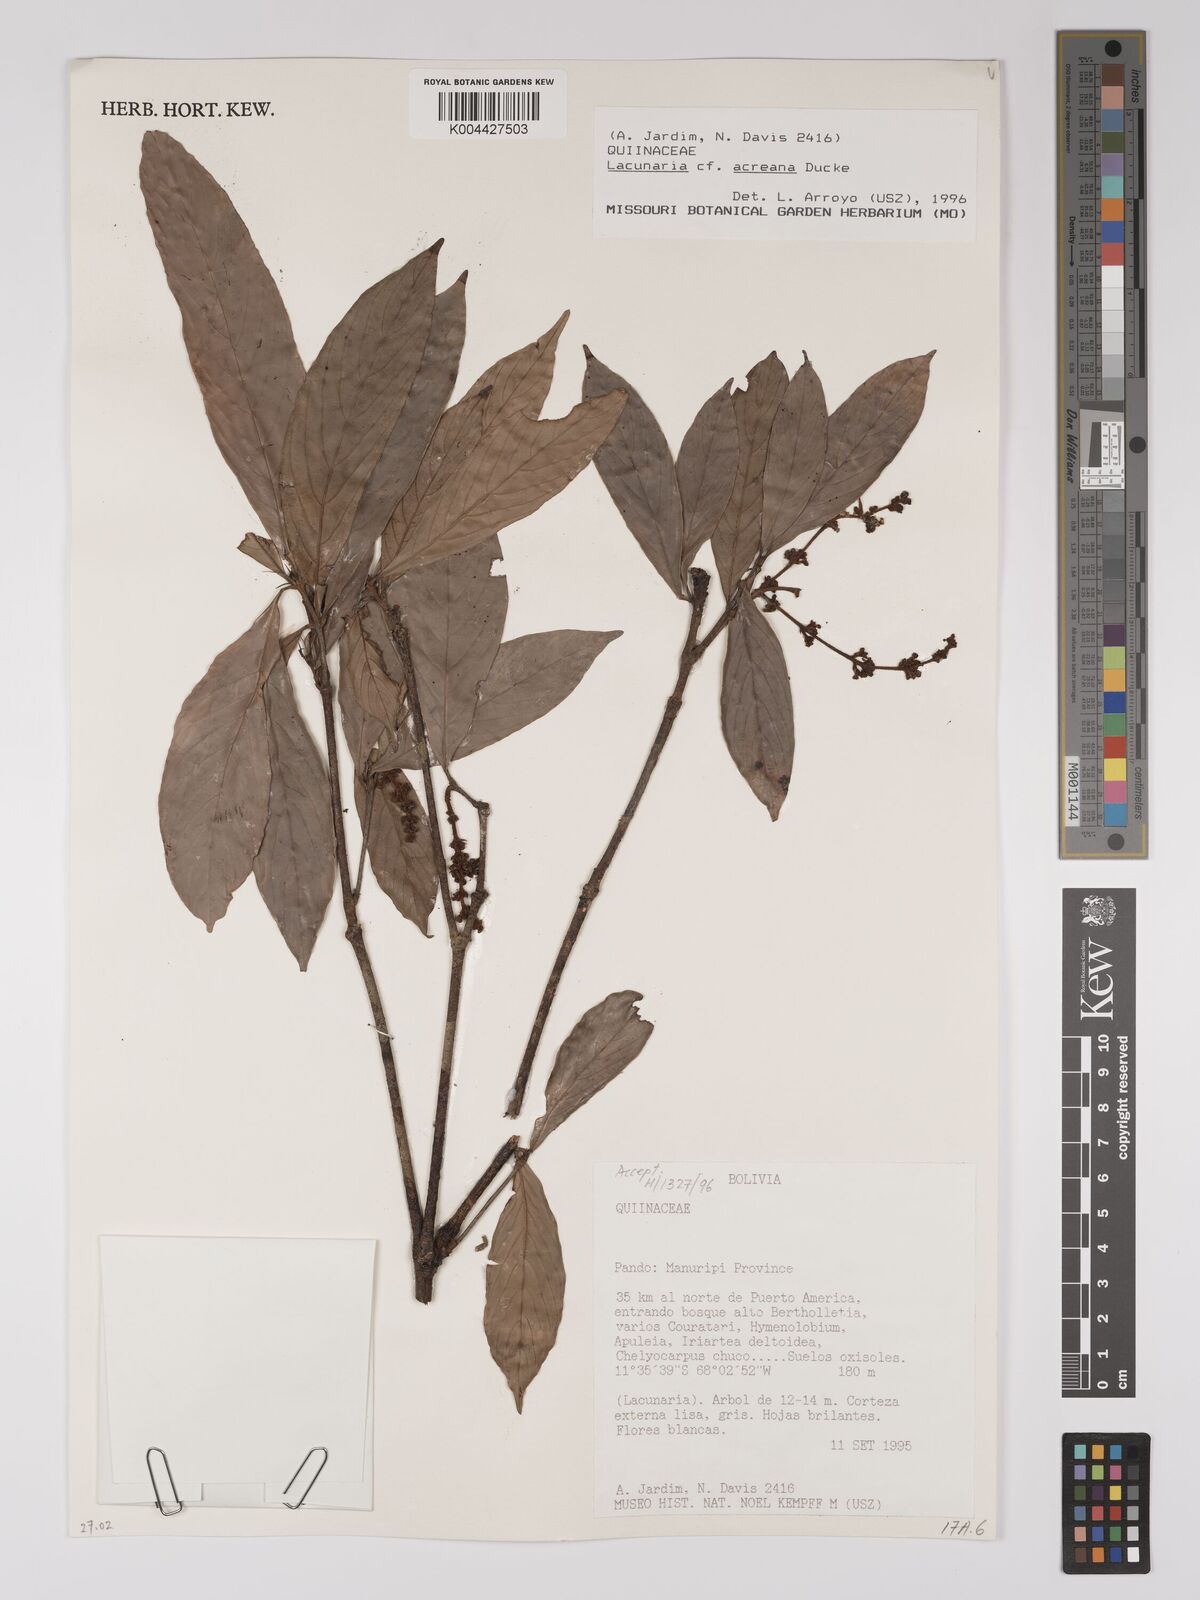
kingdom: Plantae
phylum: Tracheophyta
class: Magnoliopsida
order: Malpighiales
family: Quiinaceae
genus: Lacunaria
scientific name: Lacunaria macrostachya
